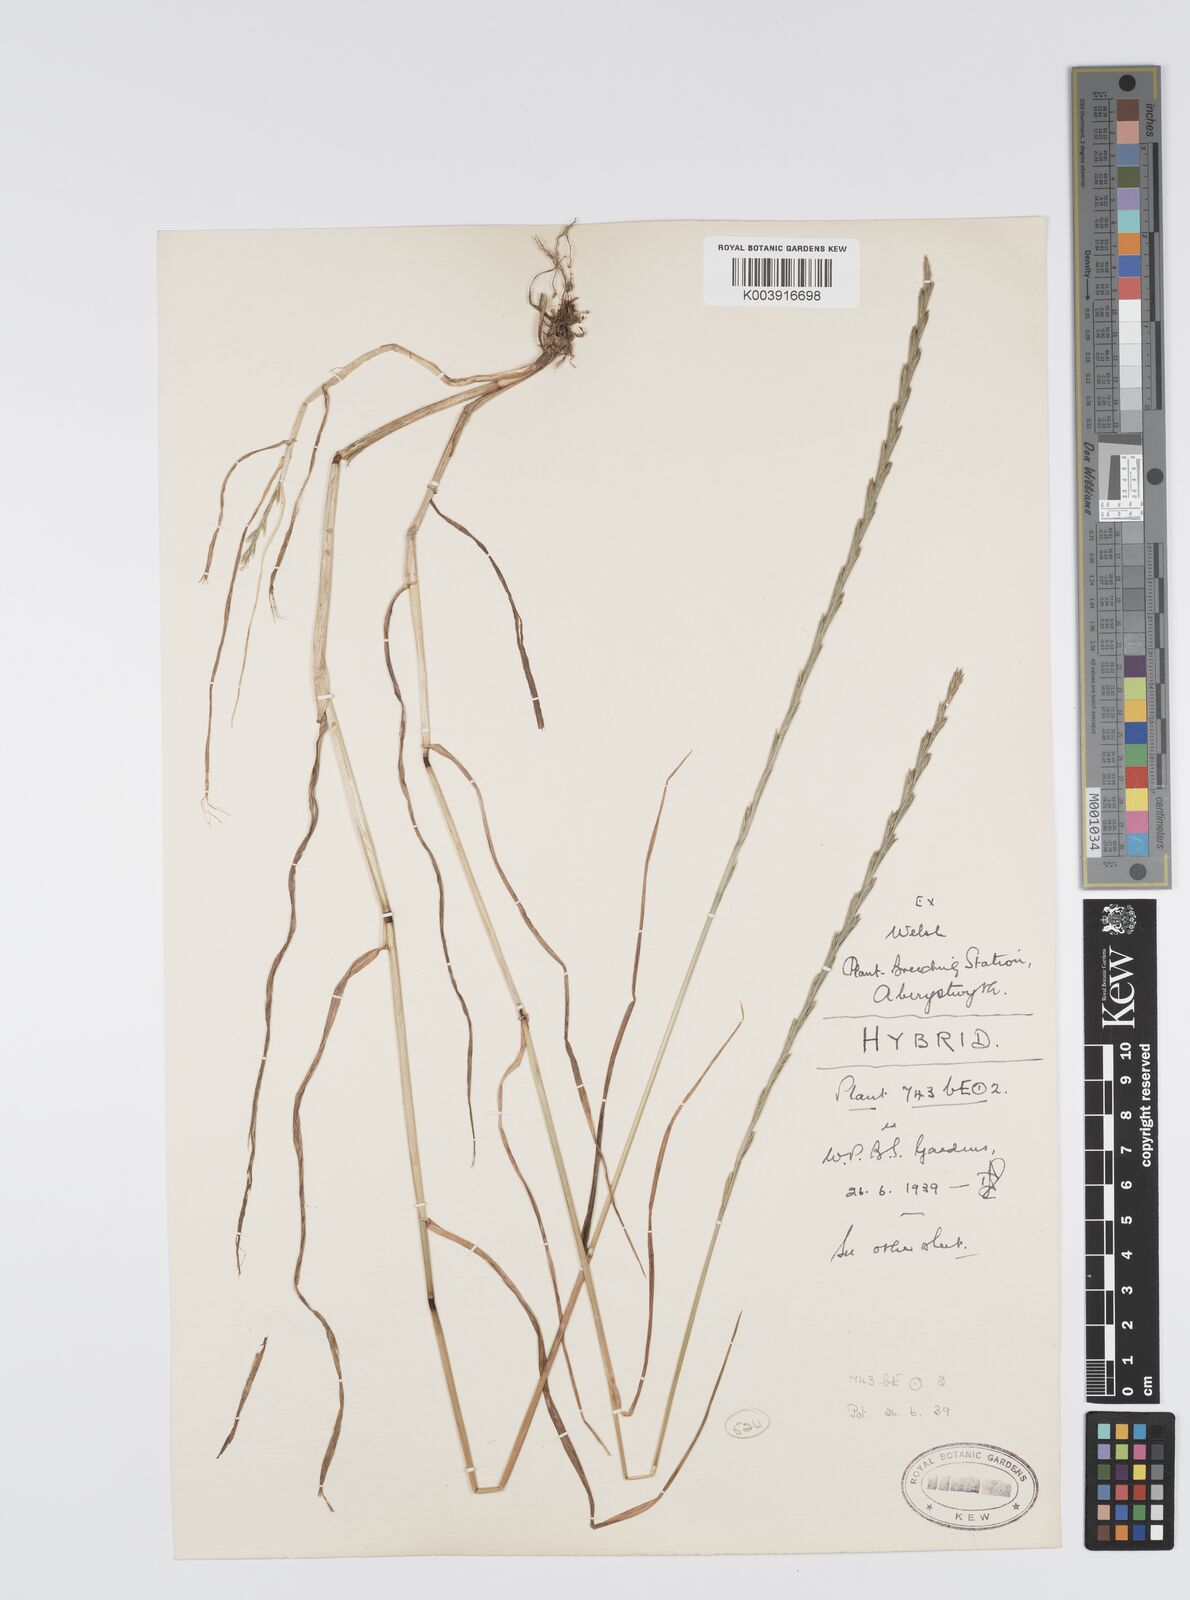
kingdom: Plantae
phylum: Tracheophyta
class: Liliopsida
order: Poales
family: Poaceae
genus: Lolium
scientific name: Lolium perenne
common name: Perennial ryegrass
